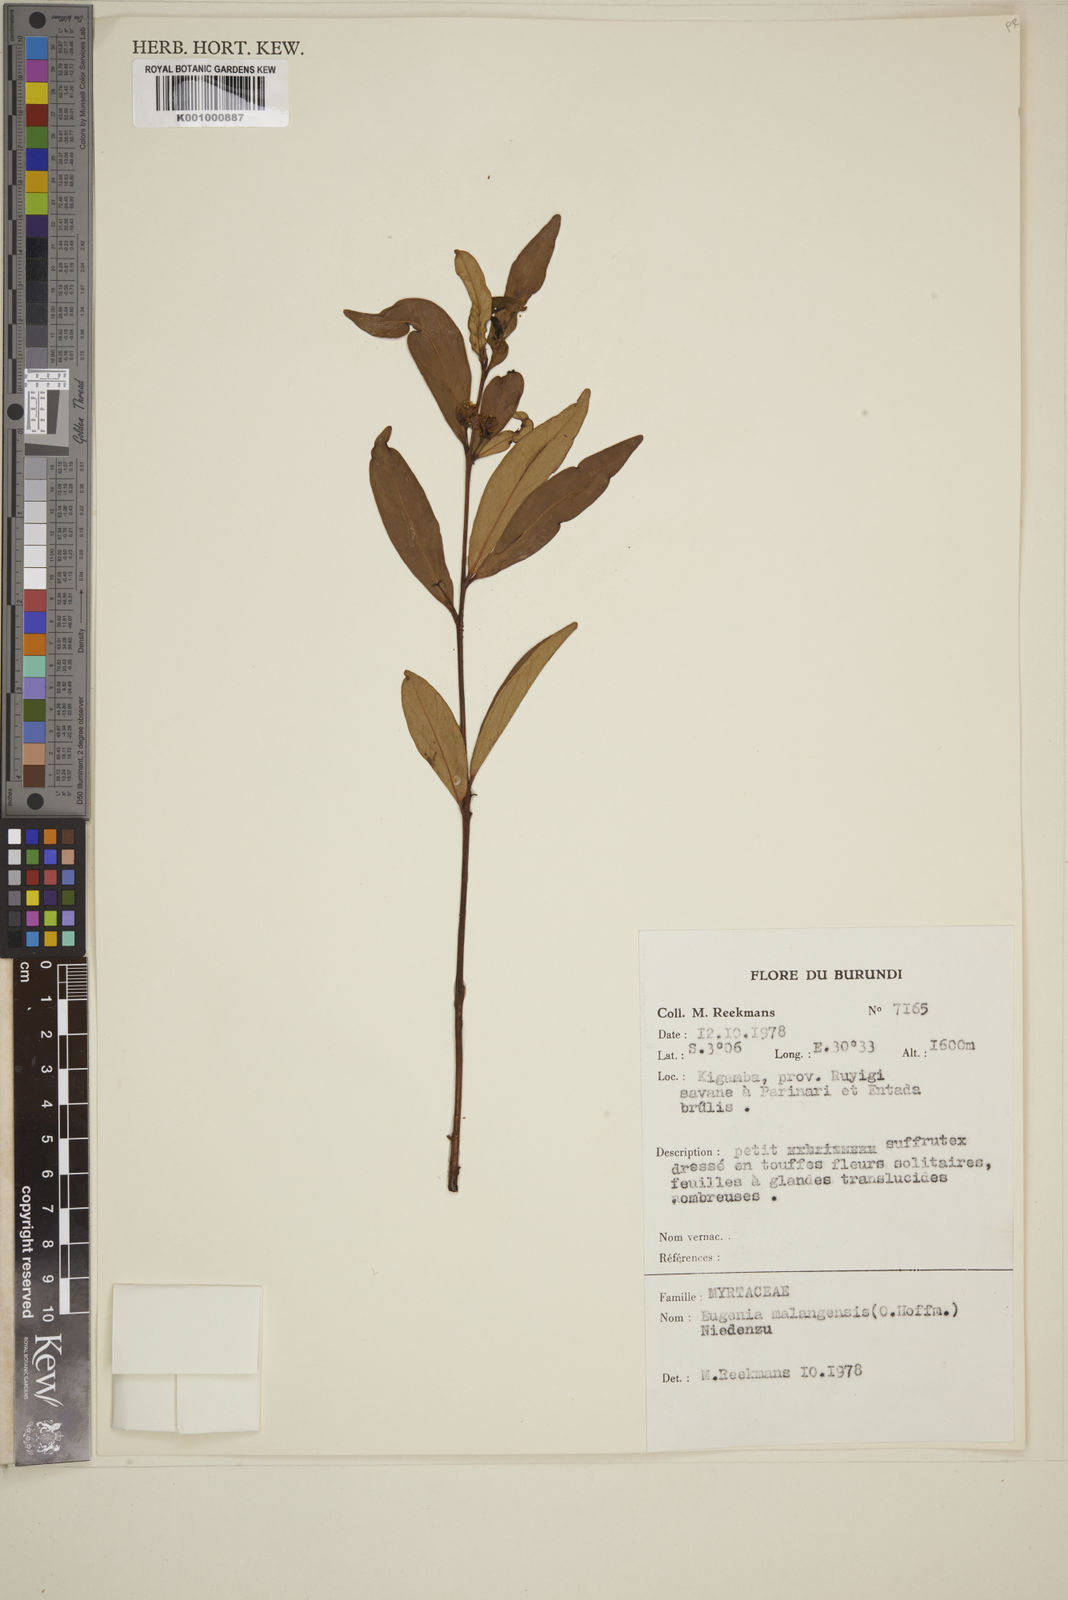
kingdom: Plantae
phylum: Tracheophyta
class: Magnoliopsida
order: Myrtales
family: Myrtaceae
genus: Eugenia
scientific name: Eugenia malangensis
